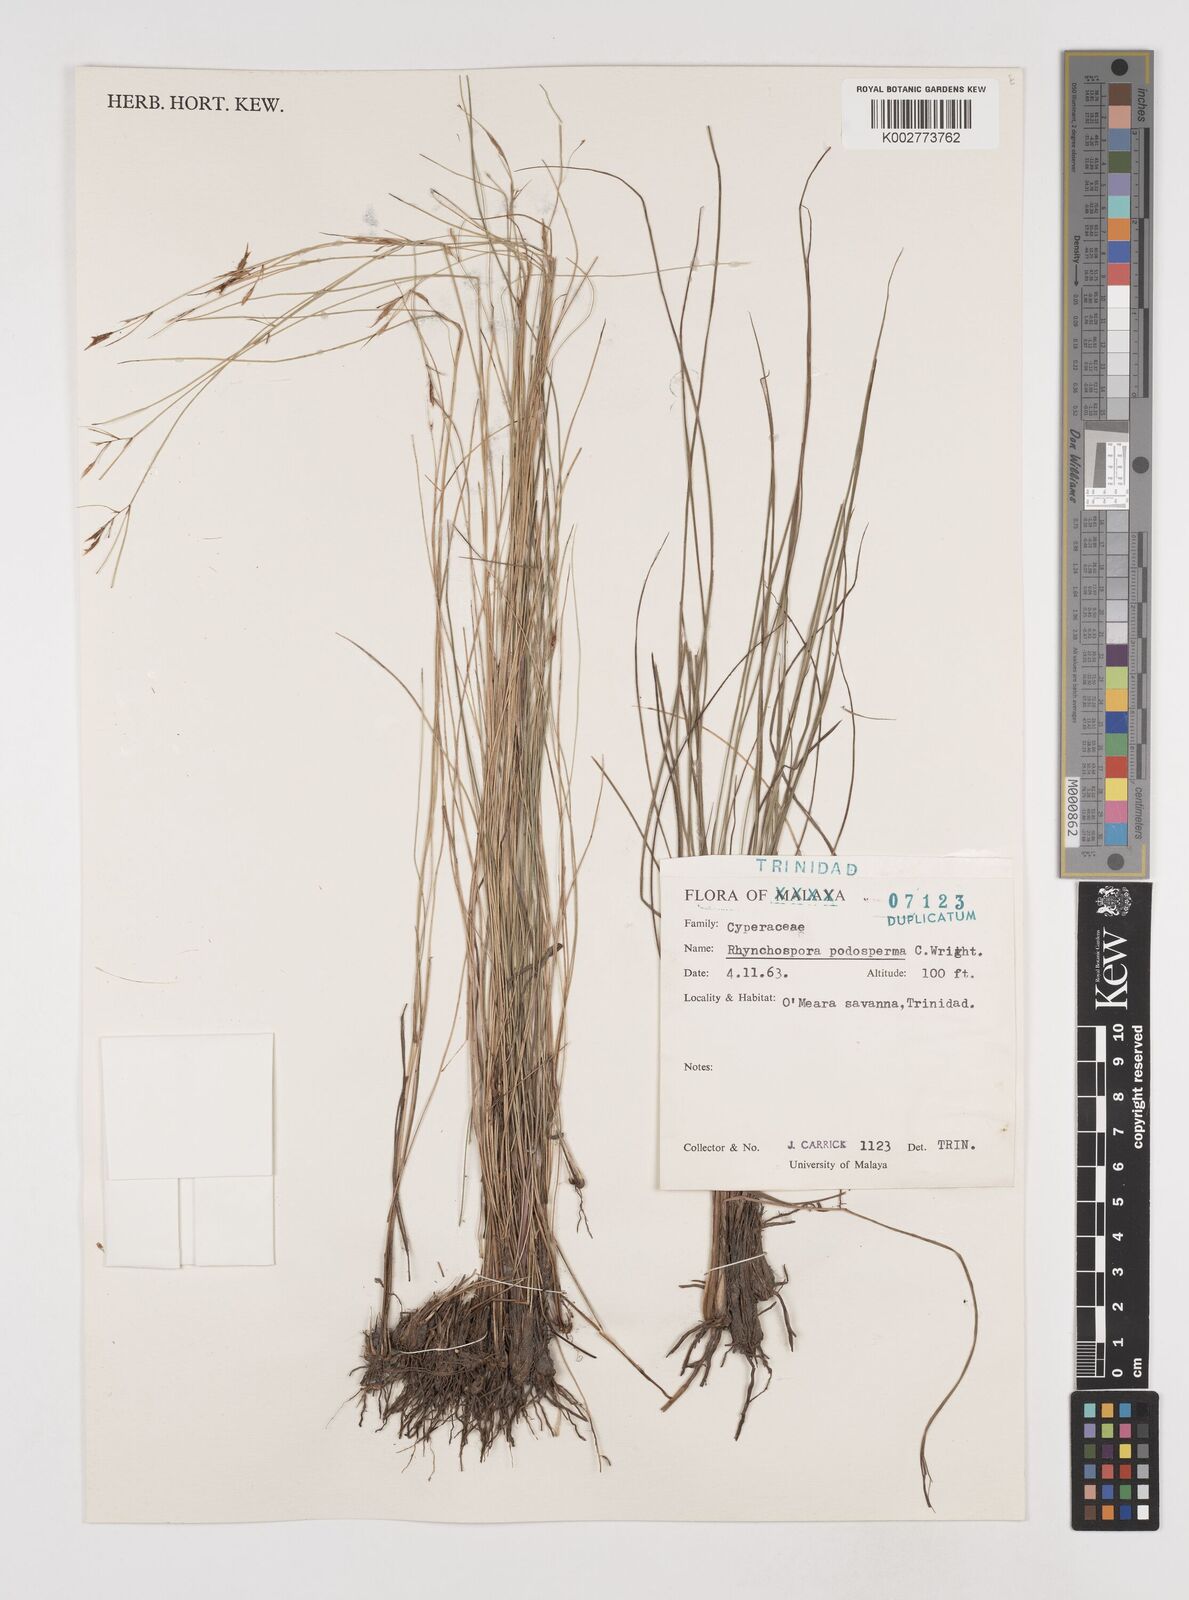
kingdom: Plantae
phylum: Tracheophyta
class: Liliopsida
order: Poales
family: Cyperaceae
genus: Rhynchospora
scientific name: Rhynchospora filiformis
